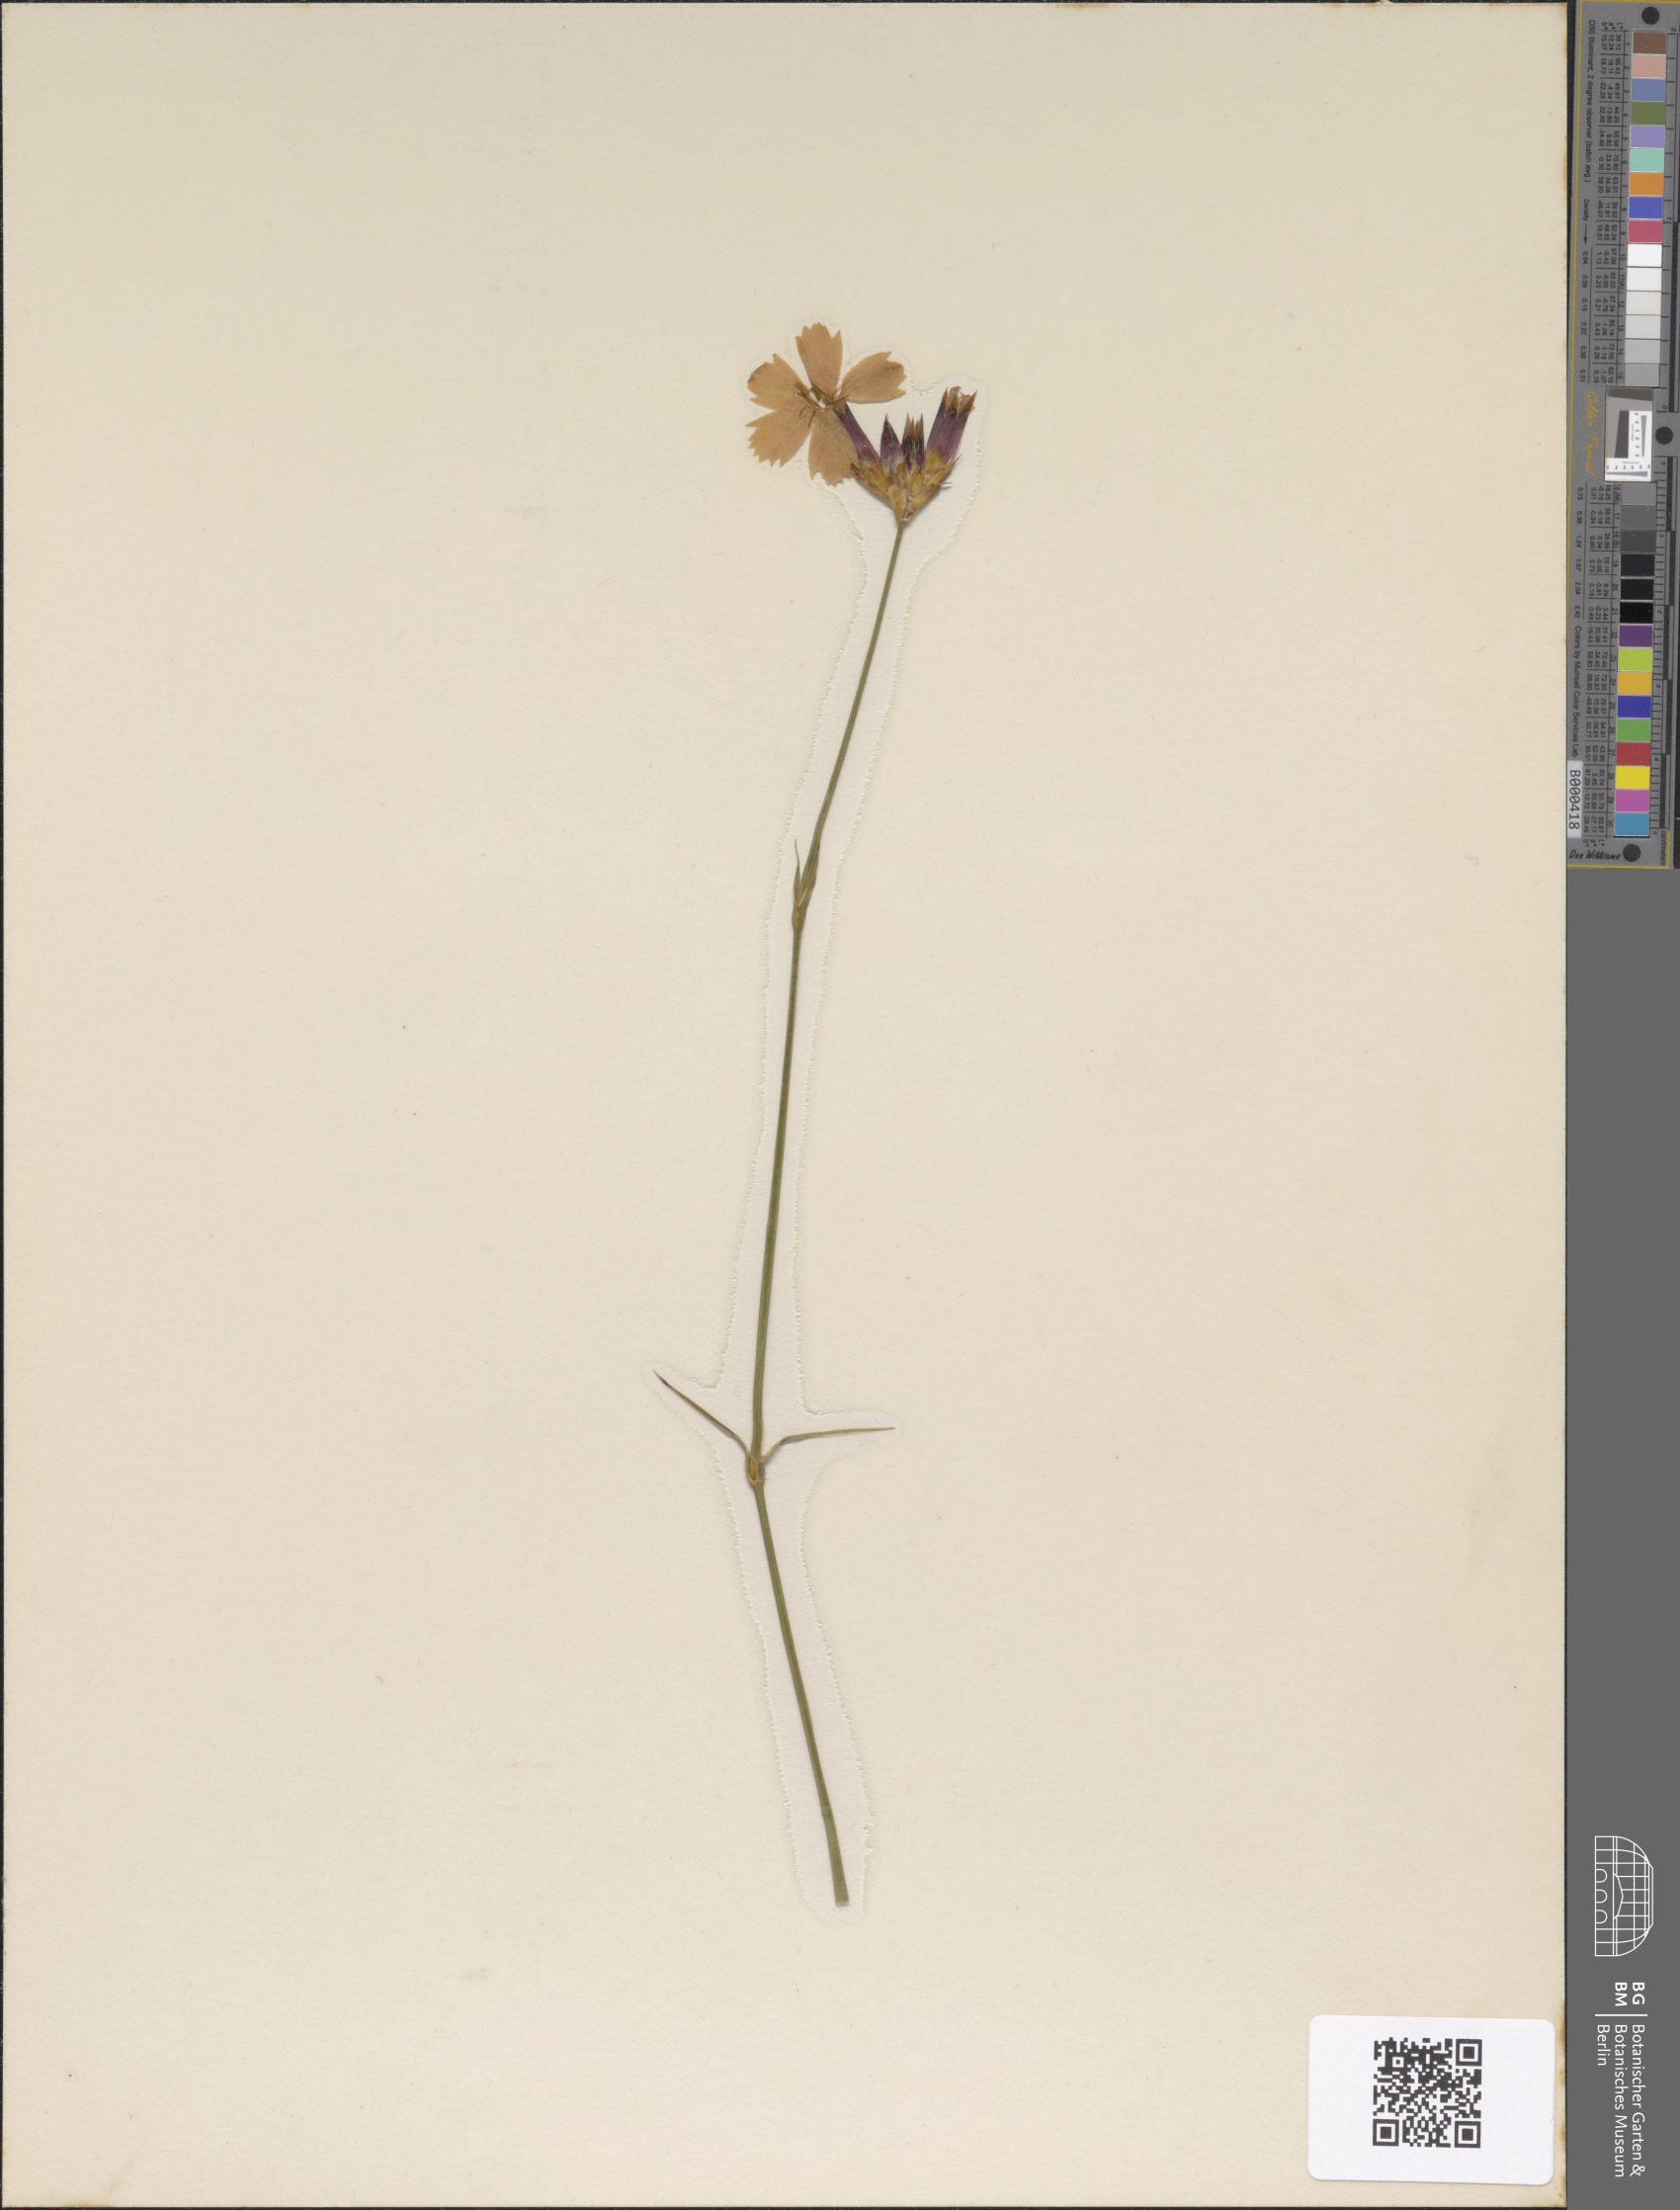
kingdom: Plantae
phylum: Tracheophyta
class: Magnoliopsida
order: Caryophyllales
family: Caryophyllaceae
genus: Dianthus
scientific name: Dianthus carthusianorum
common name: Carthusian pink
